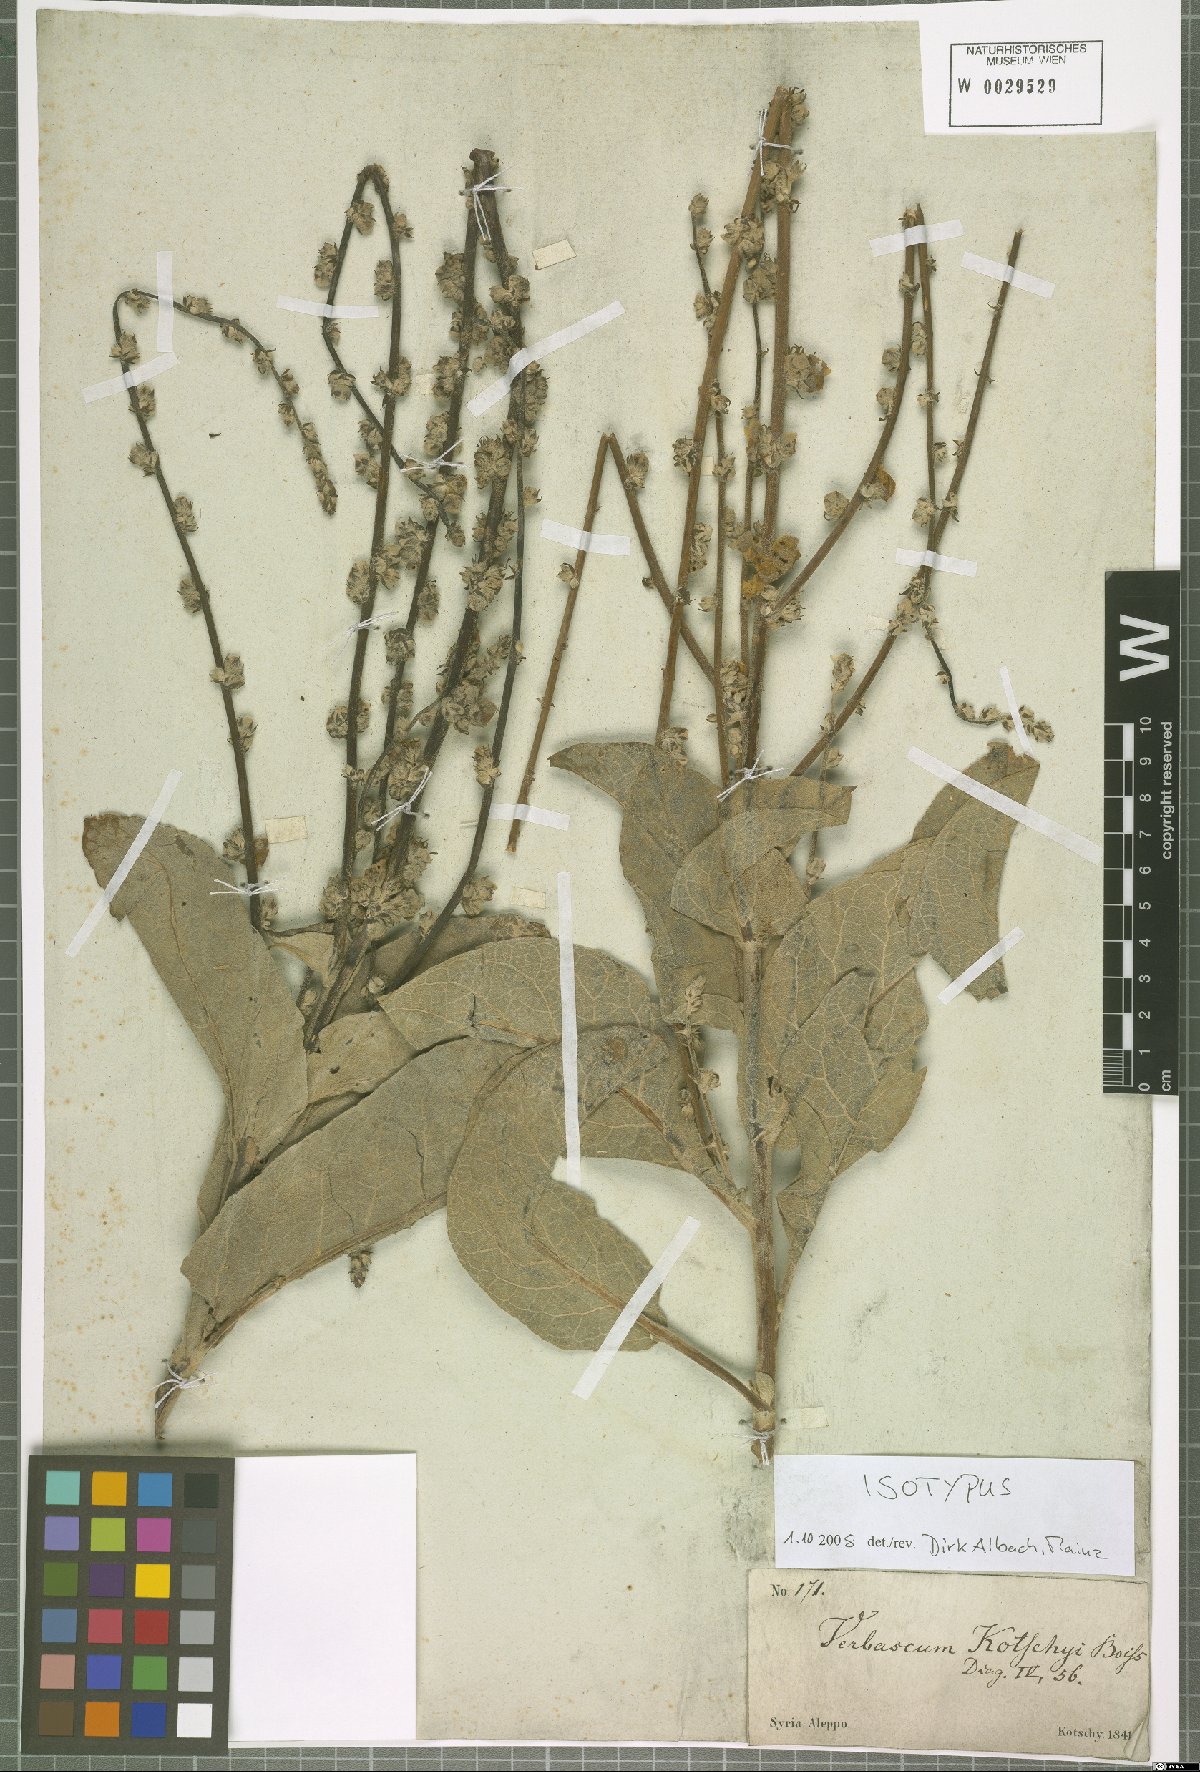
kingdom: Plantae
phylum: Tracheophyta
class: Magnoliopsida
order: Lamiales
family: Scrophulariaceae
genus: Verbascum
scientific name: Verbascum kotschyi
